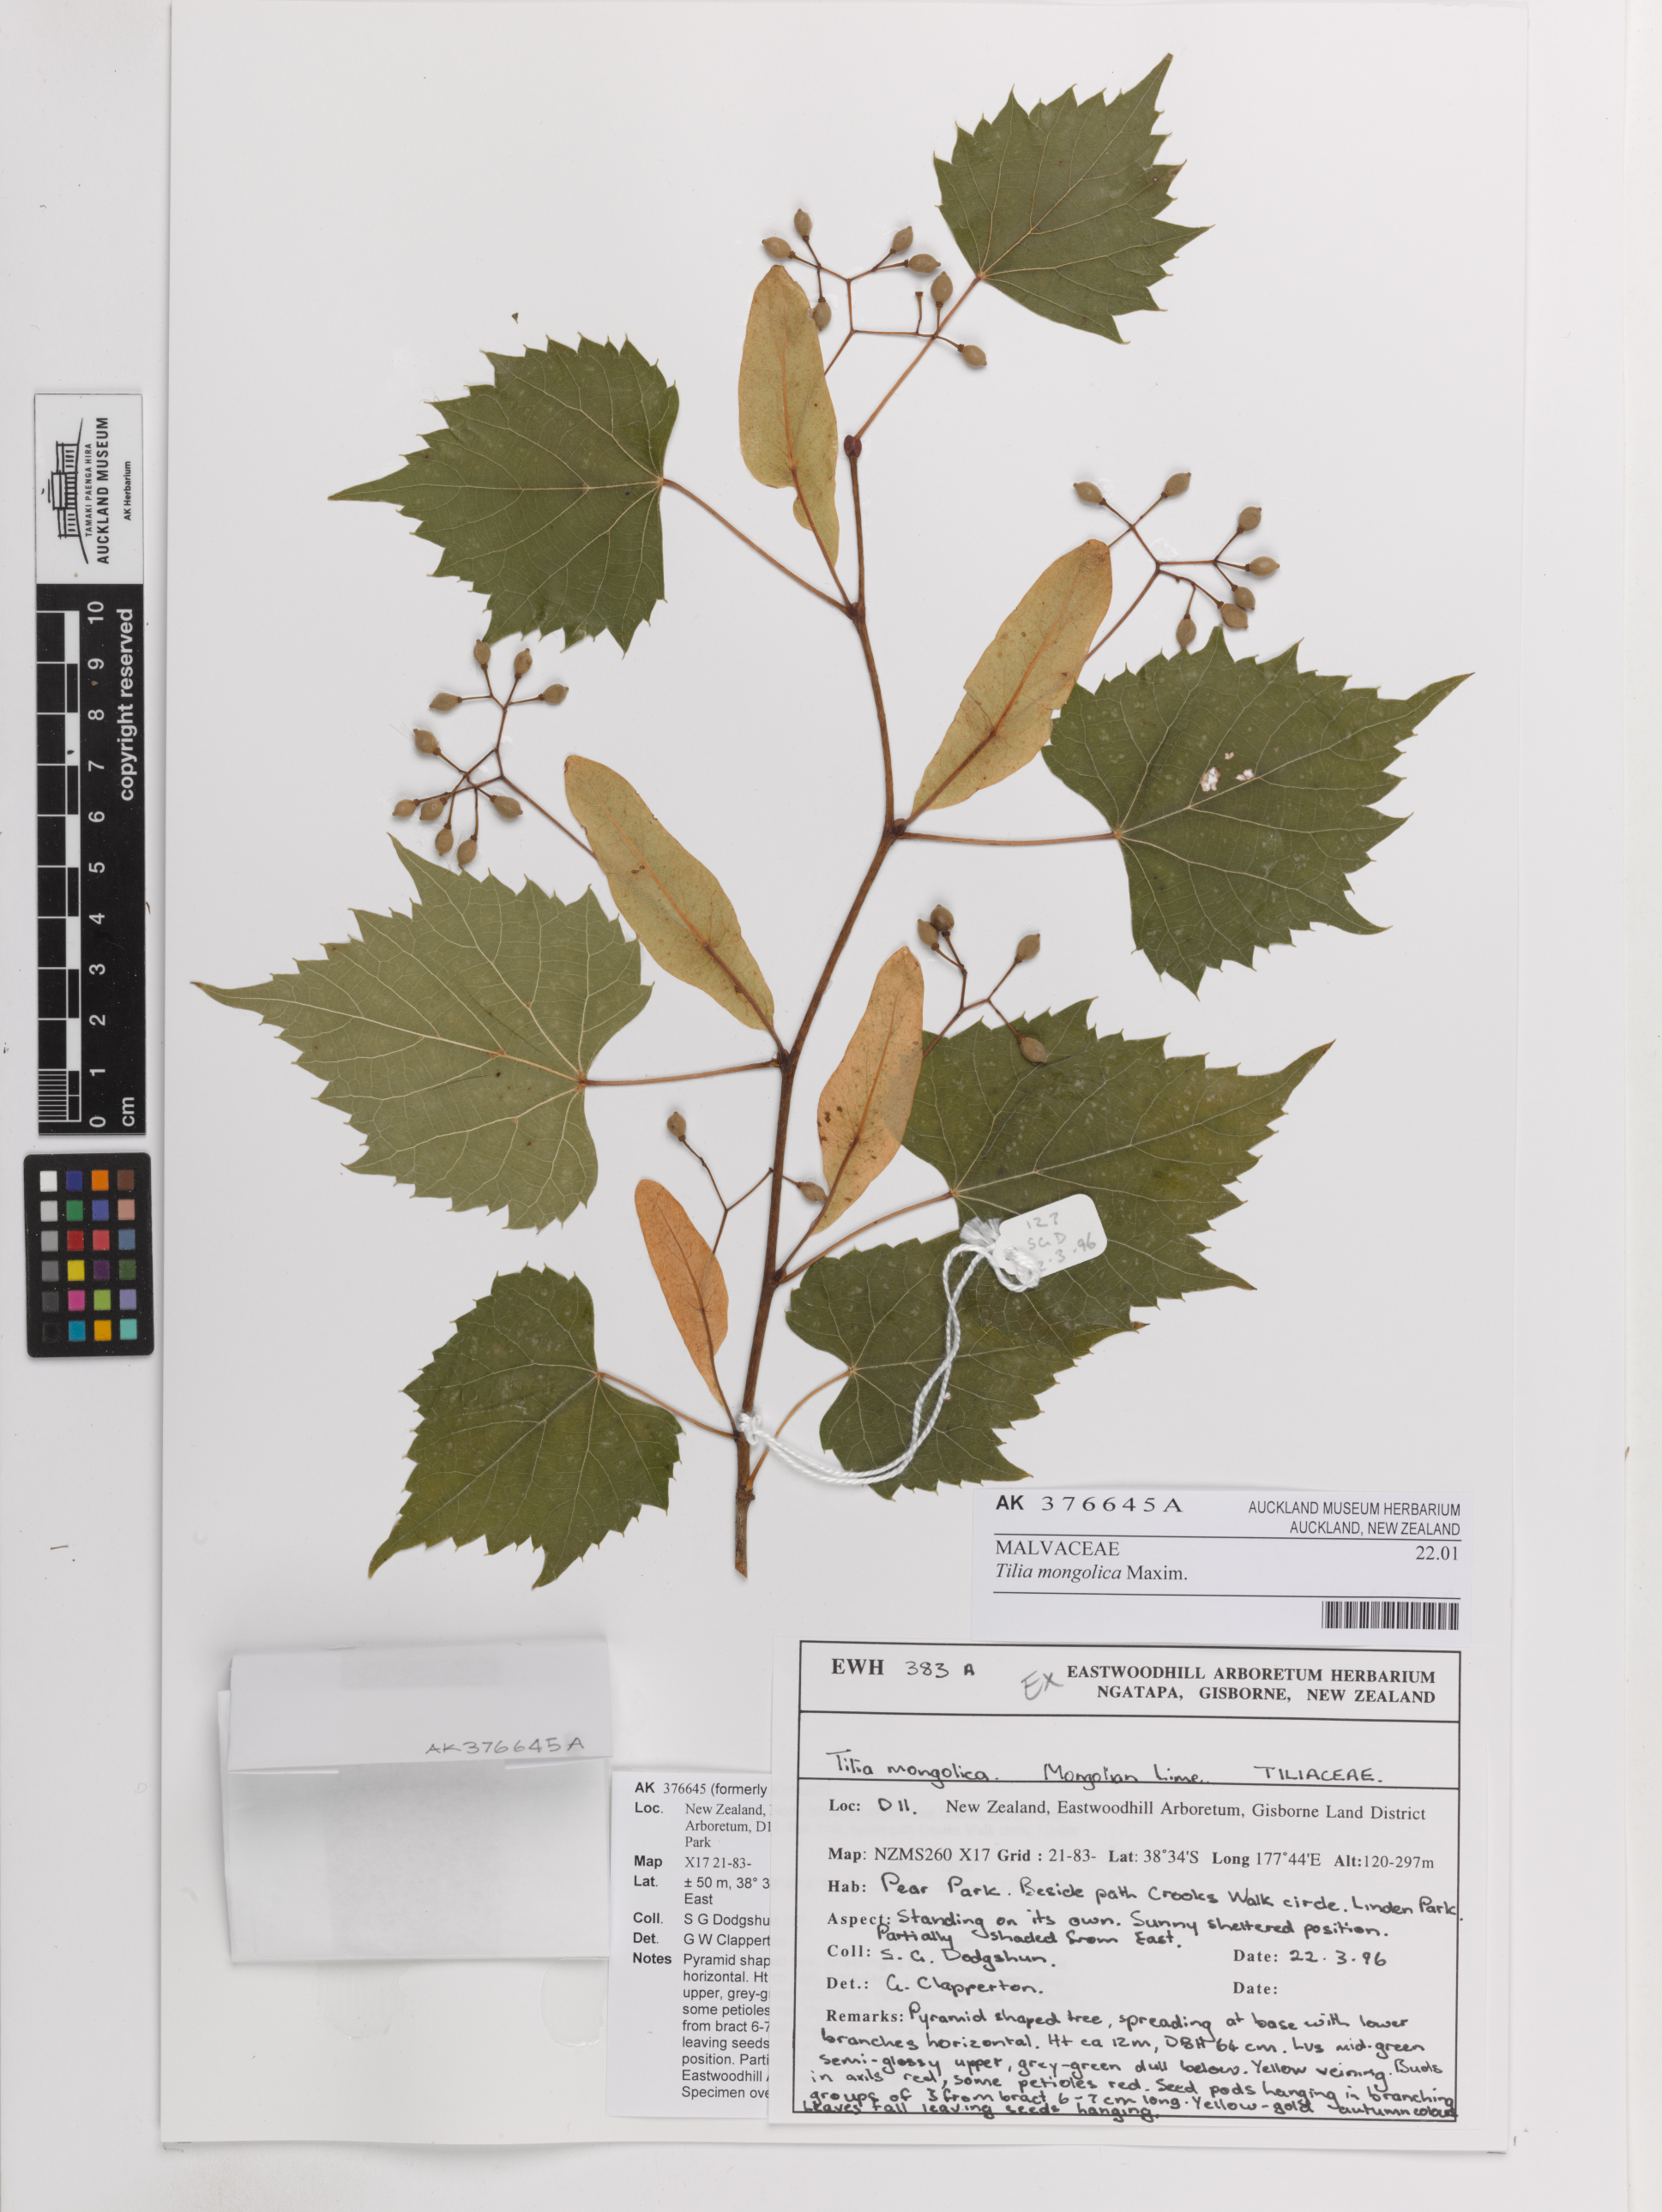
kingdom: Plantae
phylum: Tracheophyta
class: Magnoliopsida
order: Malvales
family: Malvaceae
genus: Tilia
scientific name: Tilia mongolica
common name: Mongolian lime
